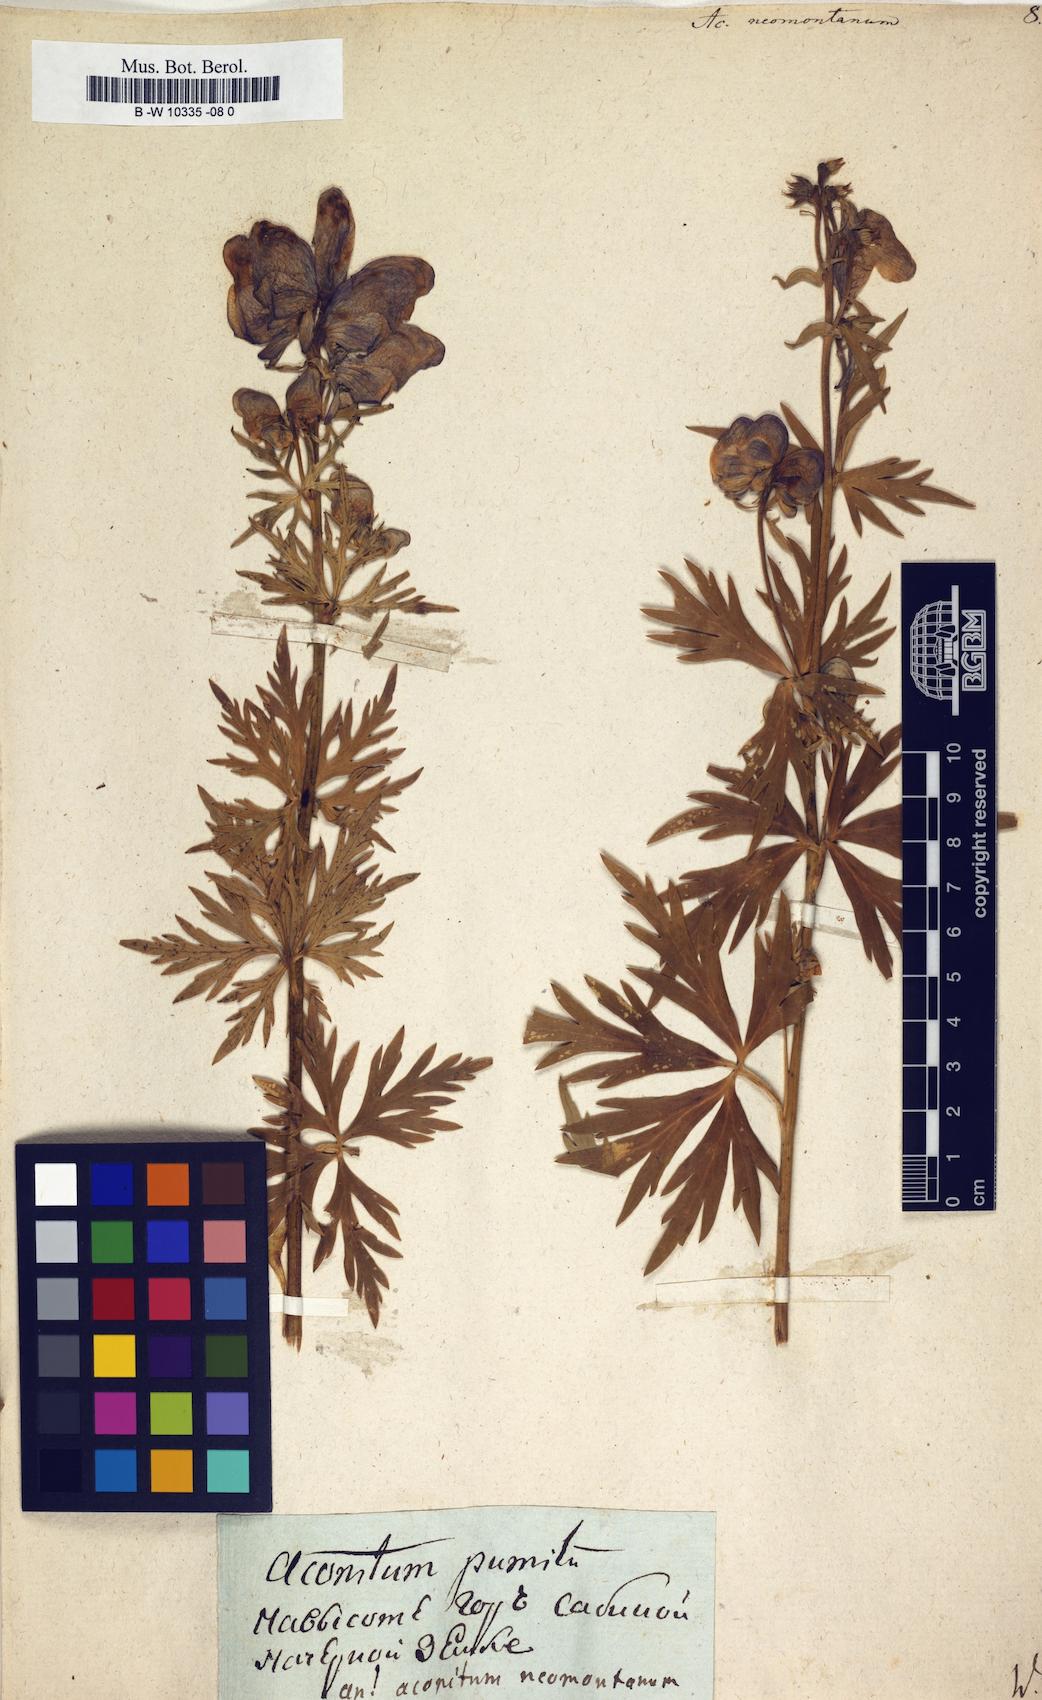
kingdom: Plantae
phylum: Tracheophyta
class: Magnoliopsida
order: Ranunculales
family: Ranunculaceae
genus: Aconitum
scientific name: Aconitum napellus
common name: Garden monkshood
